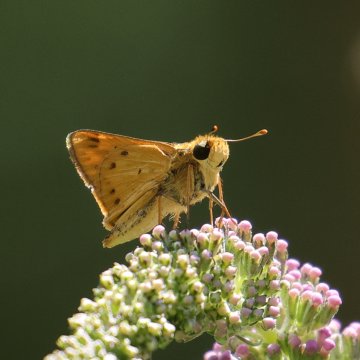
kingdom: Animalia
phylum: Arthropoda
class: Insecta
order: Lepidoptera
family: Hesperiidae
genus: Hylephila
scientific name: Hylephila phyleus
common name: Fiery Skipper
